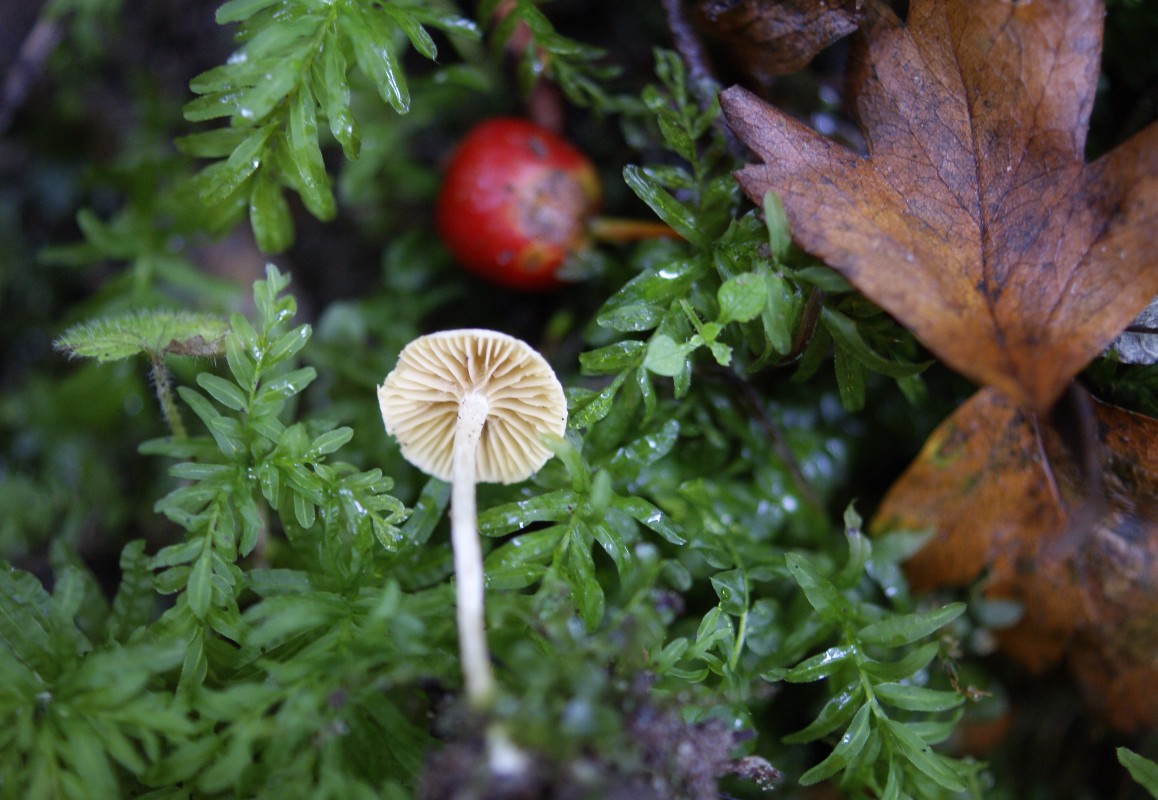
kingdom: Fungi
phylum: Basidiomycota
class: Agaricomycetes
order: Agaricales
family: Tubariaceae
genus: Tubaria
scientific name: Tubaria dispersa
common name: tjørne-fnughat
